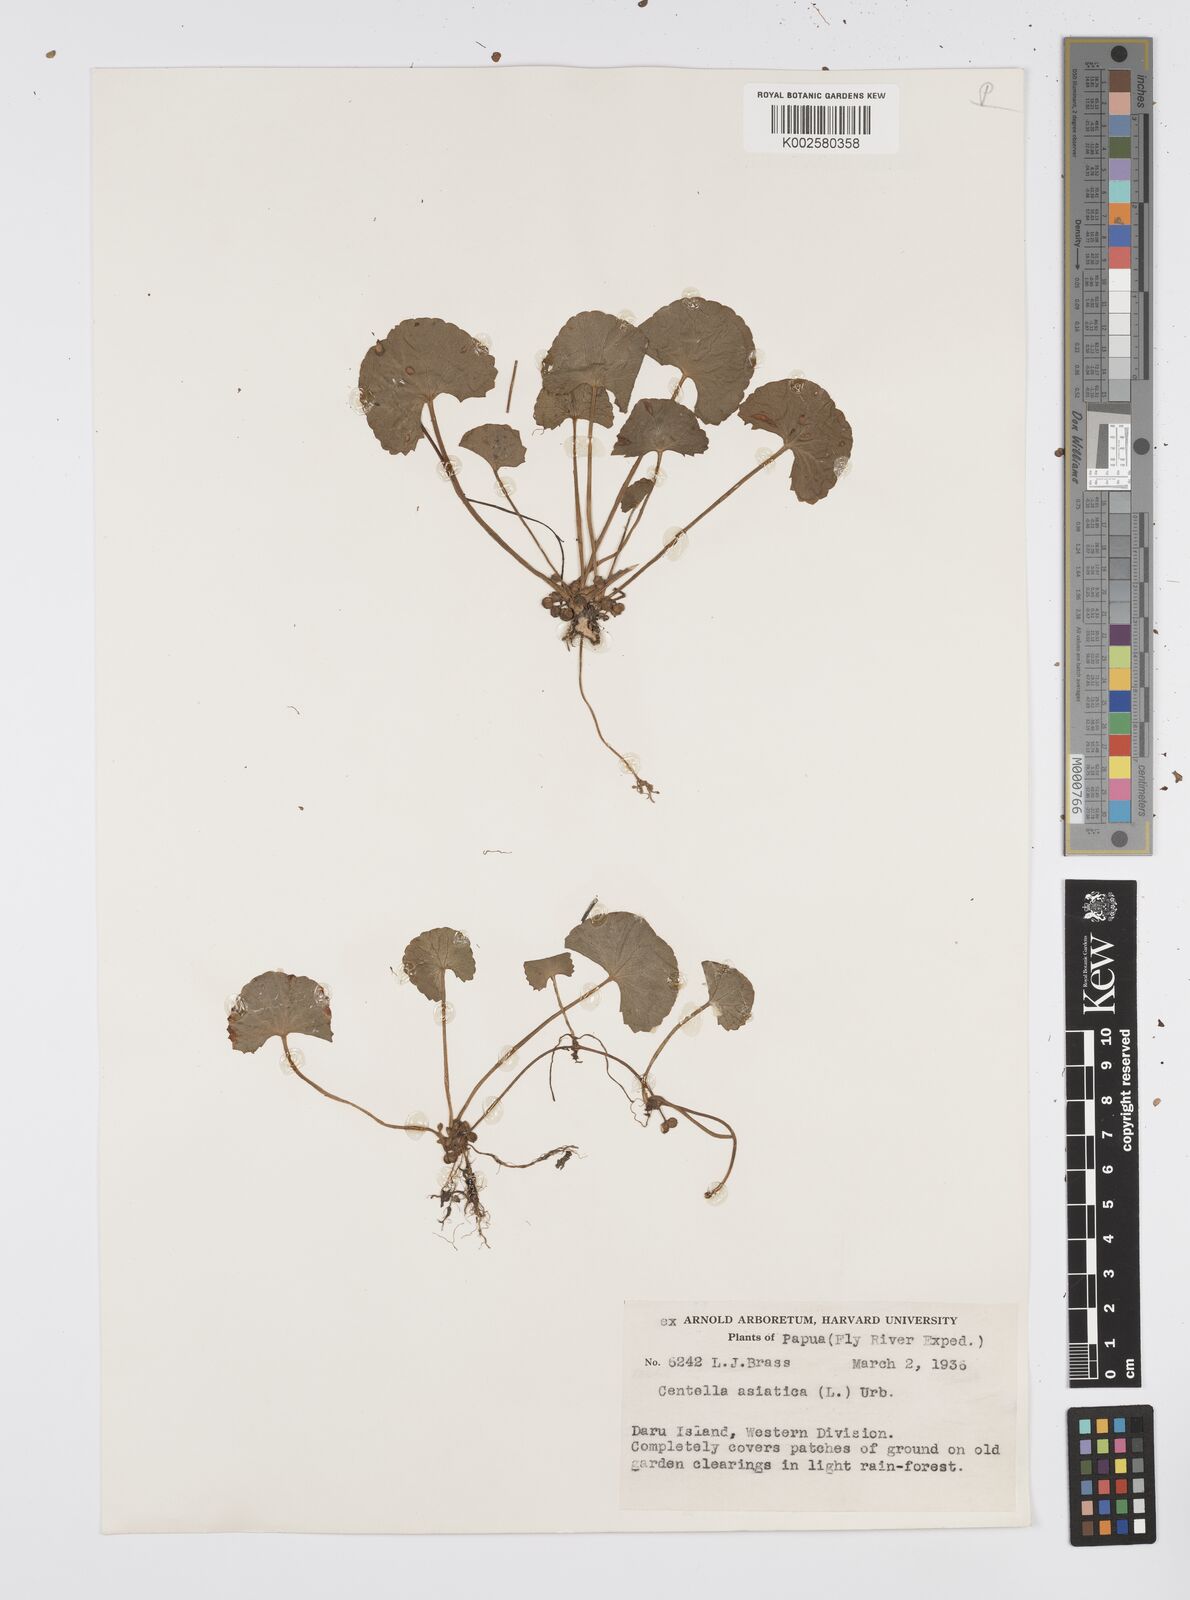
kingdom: Plantae
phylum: Tracheophyta
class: Magnoliopsida
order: Apiales
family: Apiaceae
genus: Centella
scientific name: Centella asiatica
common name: Spadeleaf
